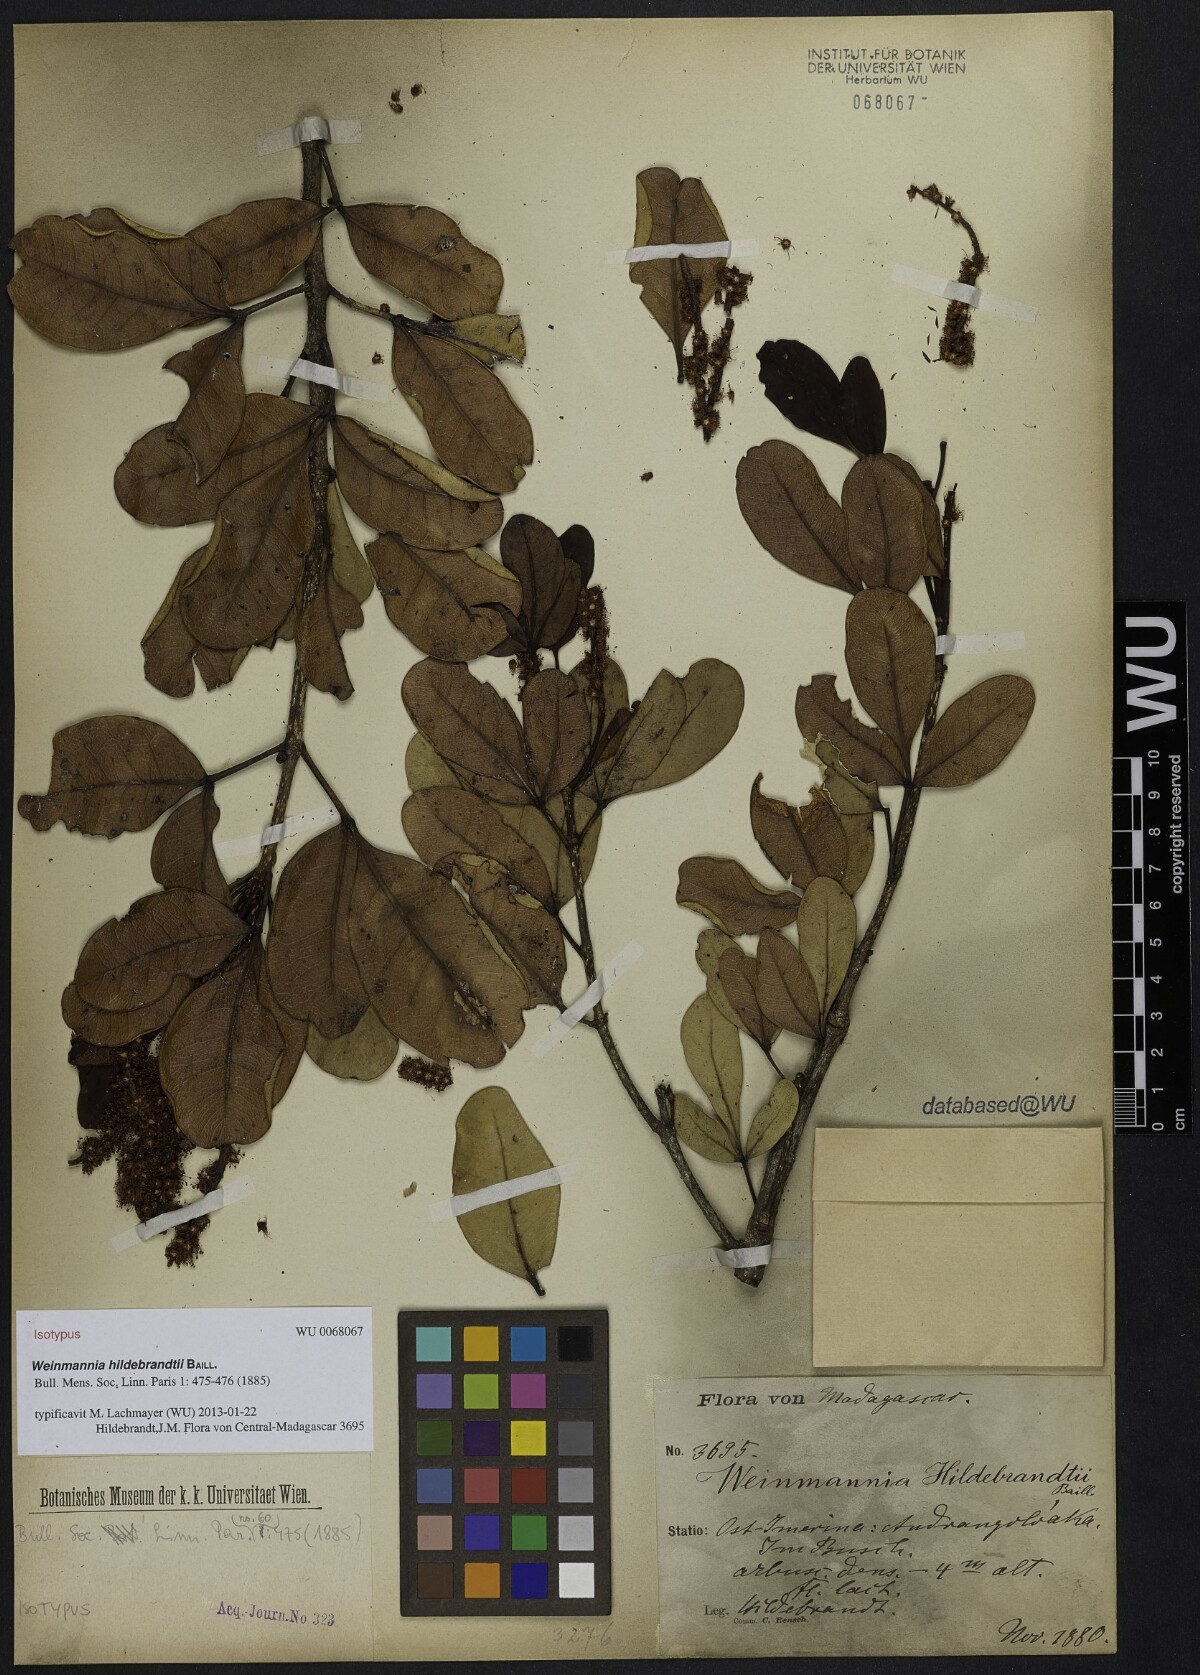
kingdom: Plantae
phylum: Tracheophyta
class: Magnoliopsida
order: Oxalidales
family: Cunoniaceae
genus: Pterophylla
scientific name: Pterophylla hildebrandtii
